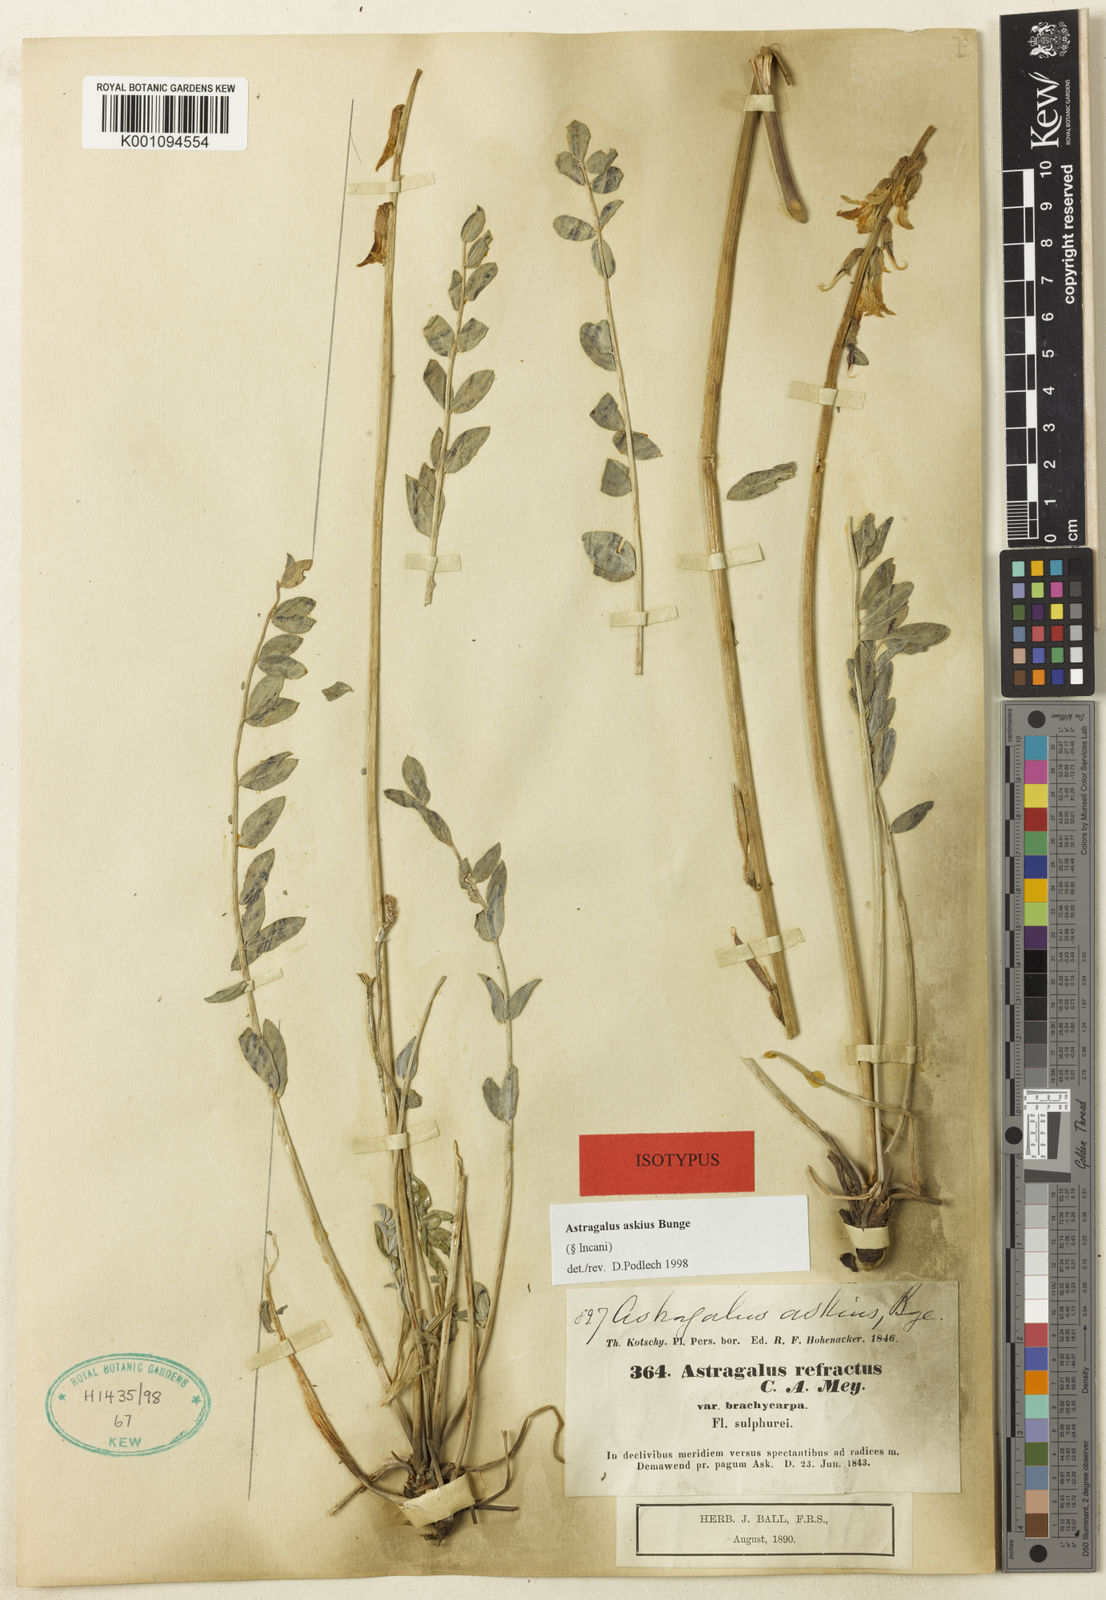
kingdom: Plantae
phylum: Tracheophyta
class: Magnoliopsida
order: Fabales
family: Fabaceae
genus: Astragalus
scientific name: Astragalus
